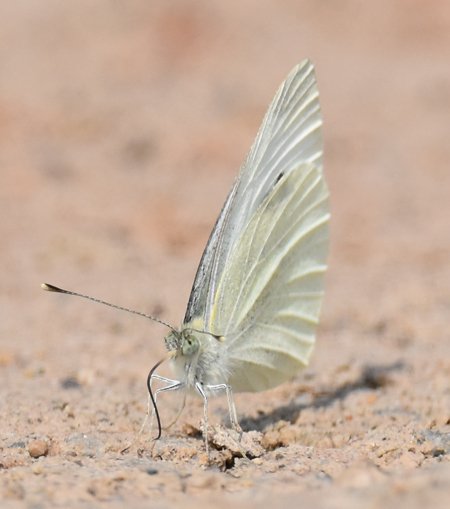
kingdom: Animalia
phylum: Arthropoda
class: Insecta
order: Lepidoptera
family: Pieridae
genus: Pieris
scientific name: Pieris rapae
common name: Cabbage White
